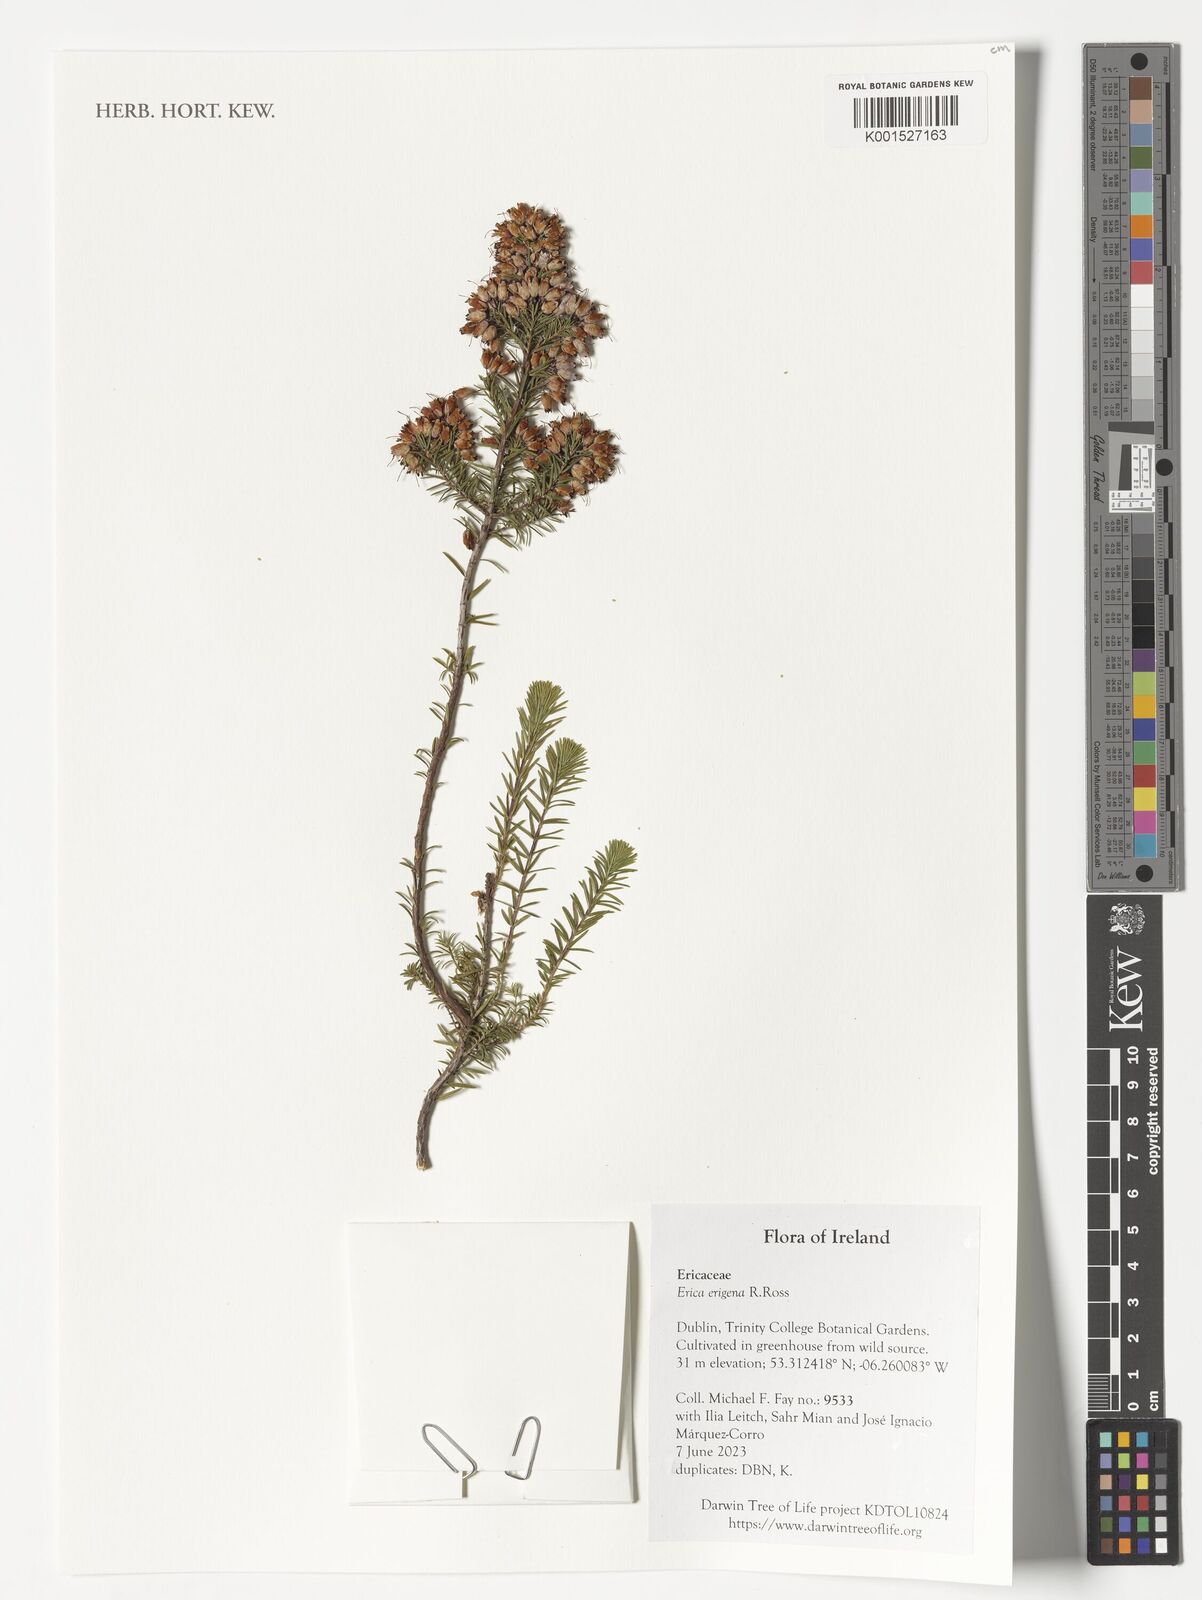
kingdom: Plantae
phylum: Tracheophyta
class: Magnoliopsida
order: Ericales
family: Ericaceae
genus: Erica
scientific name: Erica erigena
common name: Irish heath
